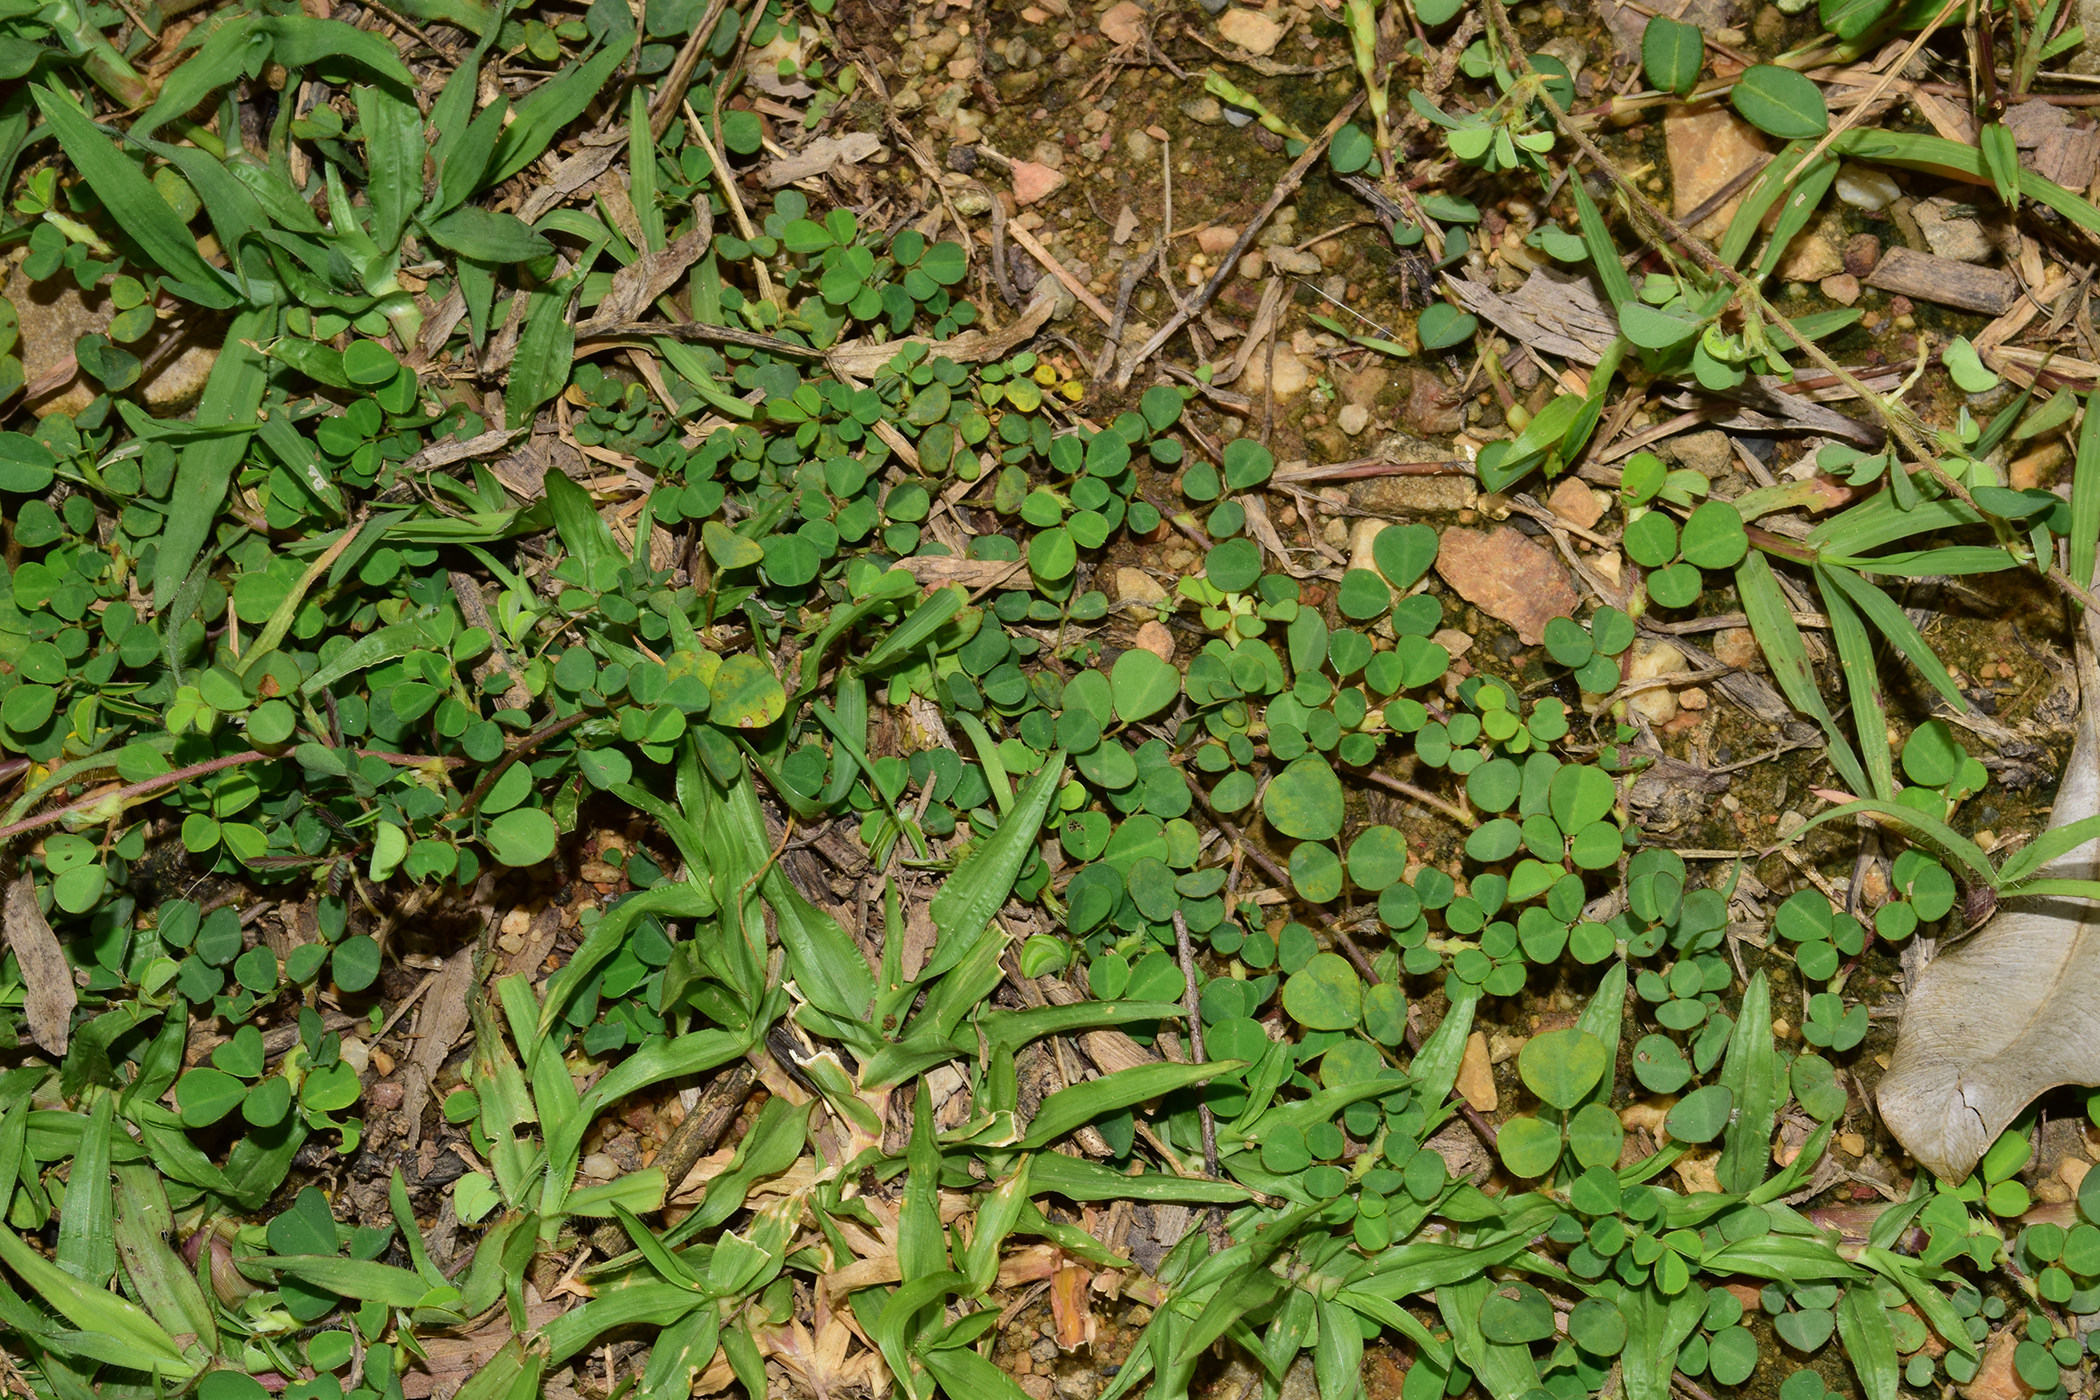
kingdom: Plantae
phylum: Tracheophyta
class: Magnoliopsida
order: Fabales
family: Fabaceae
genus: Grona
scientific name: Grona triflora
